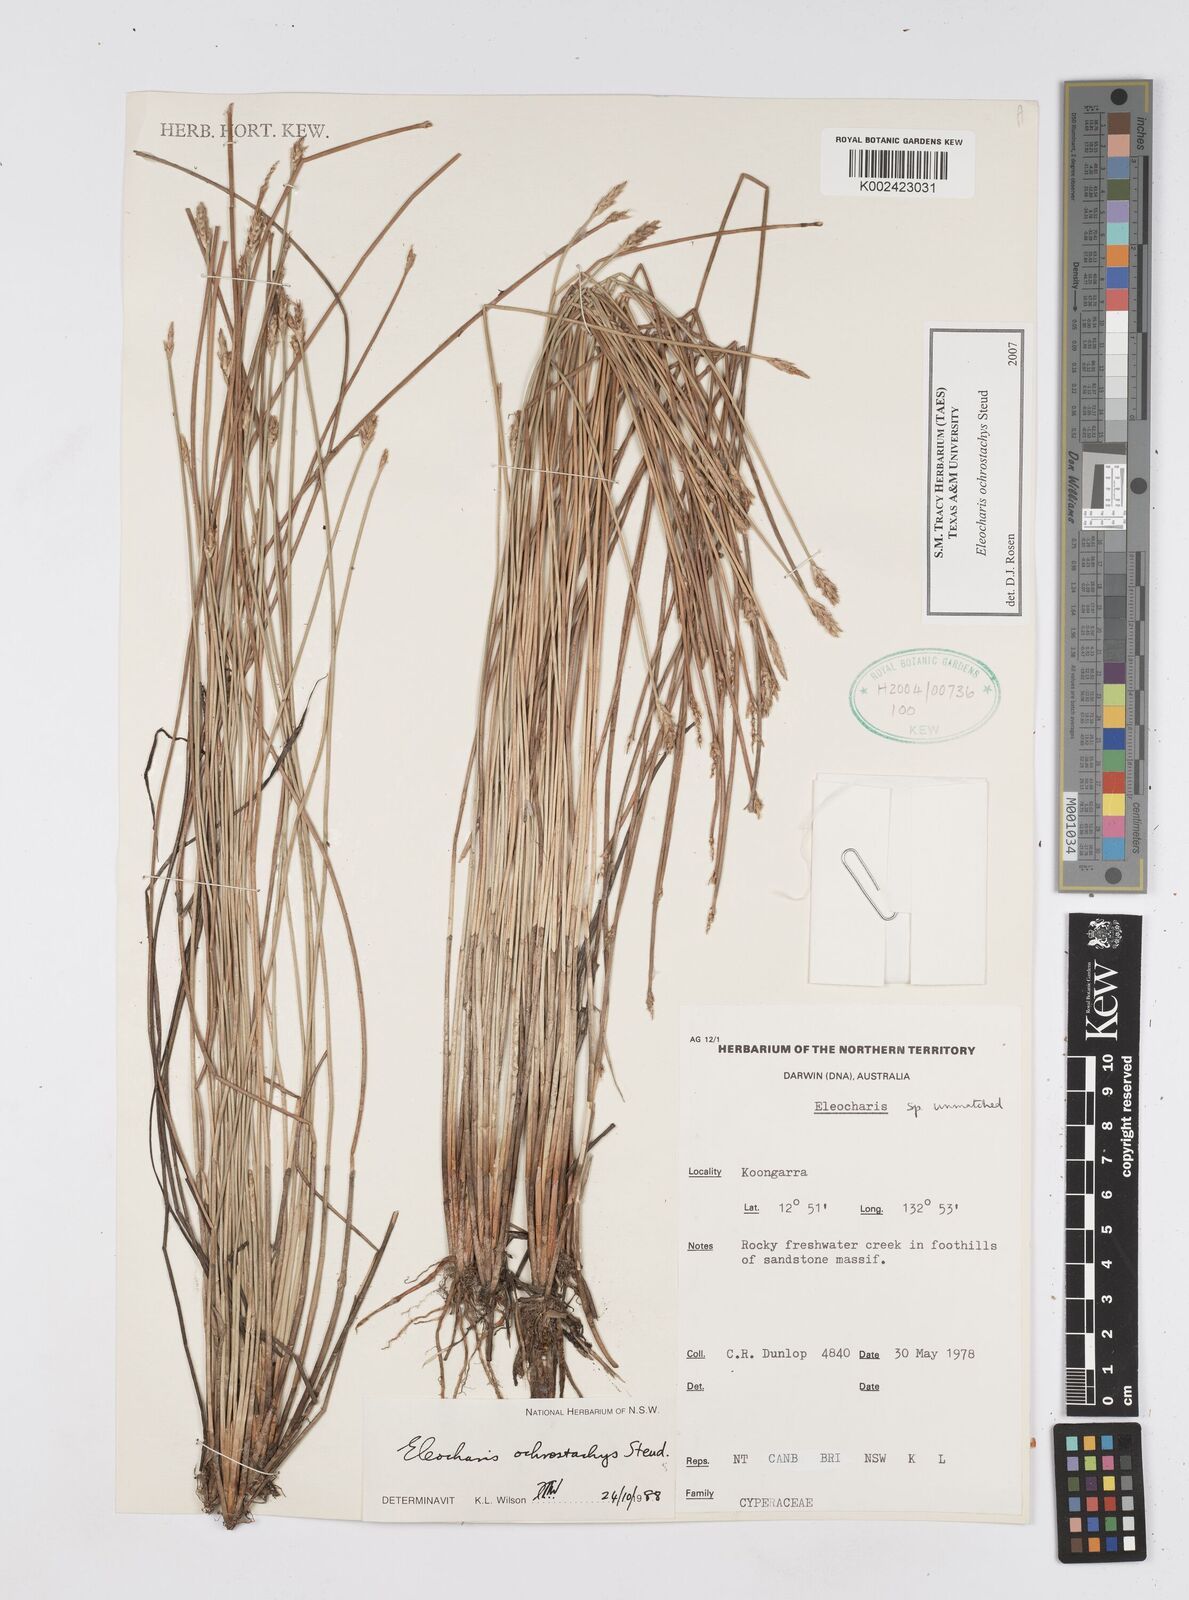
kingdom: Plantae
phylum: Tracheophyta
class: Liliopsida
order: Poales
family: Cyperaceae
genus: Eleocharis
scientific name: Eleocharis ochrostachys
